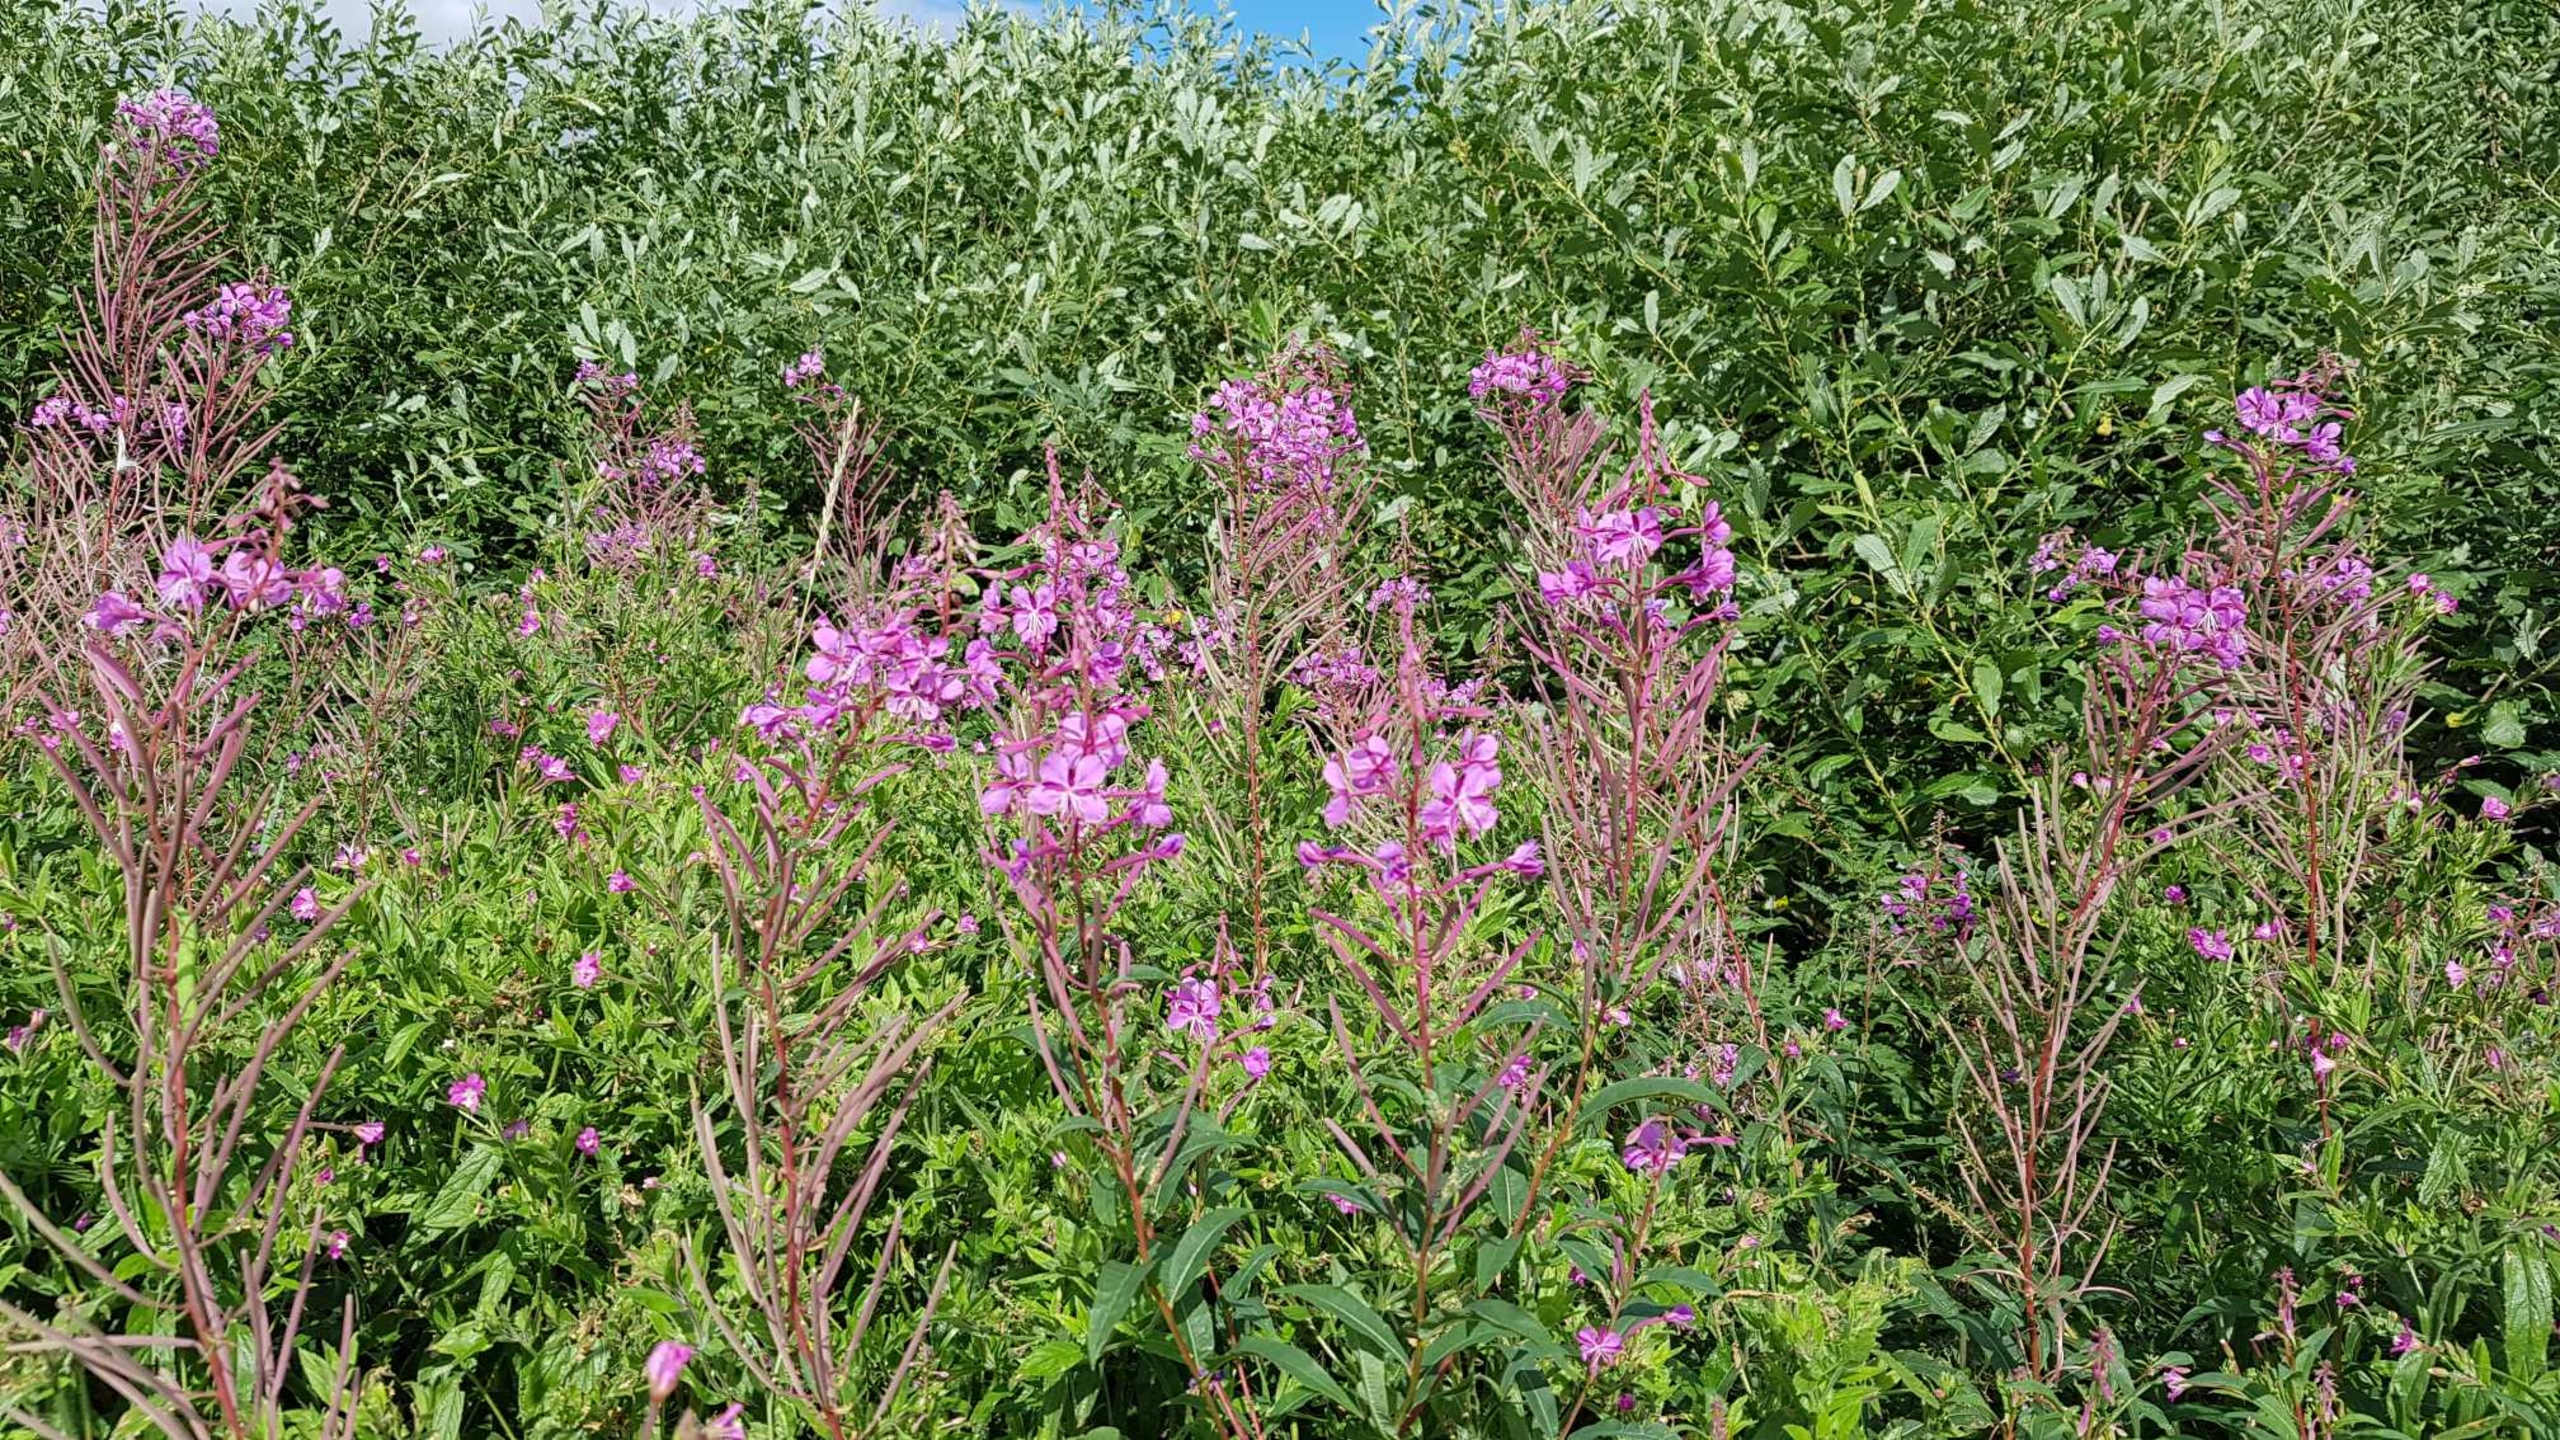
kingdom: Plantae
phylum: Tracheophyta
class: Magnoliopsida
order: Myrtales
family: Onagraceae
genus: Chamaenerion
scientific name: Chamaenerion angustifolium
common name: Gederams
